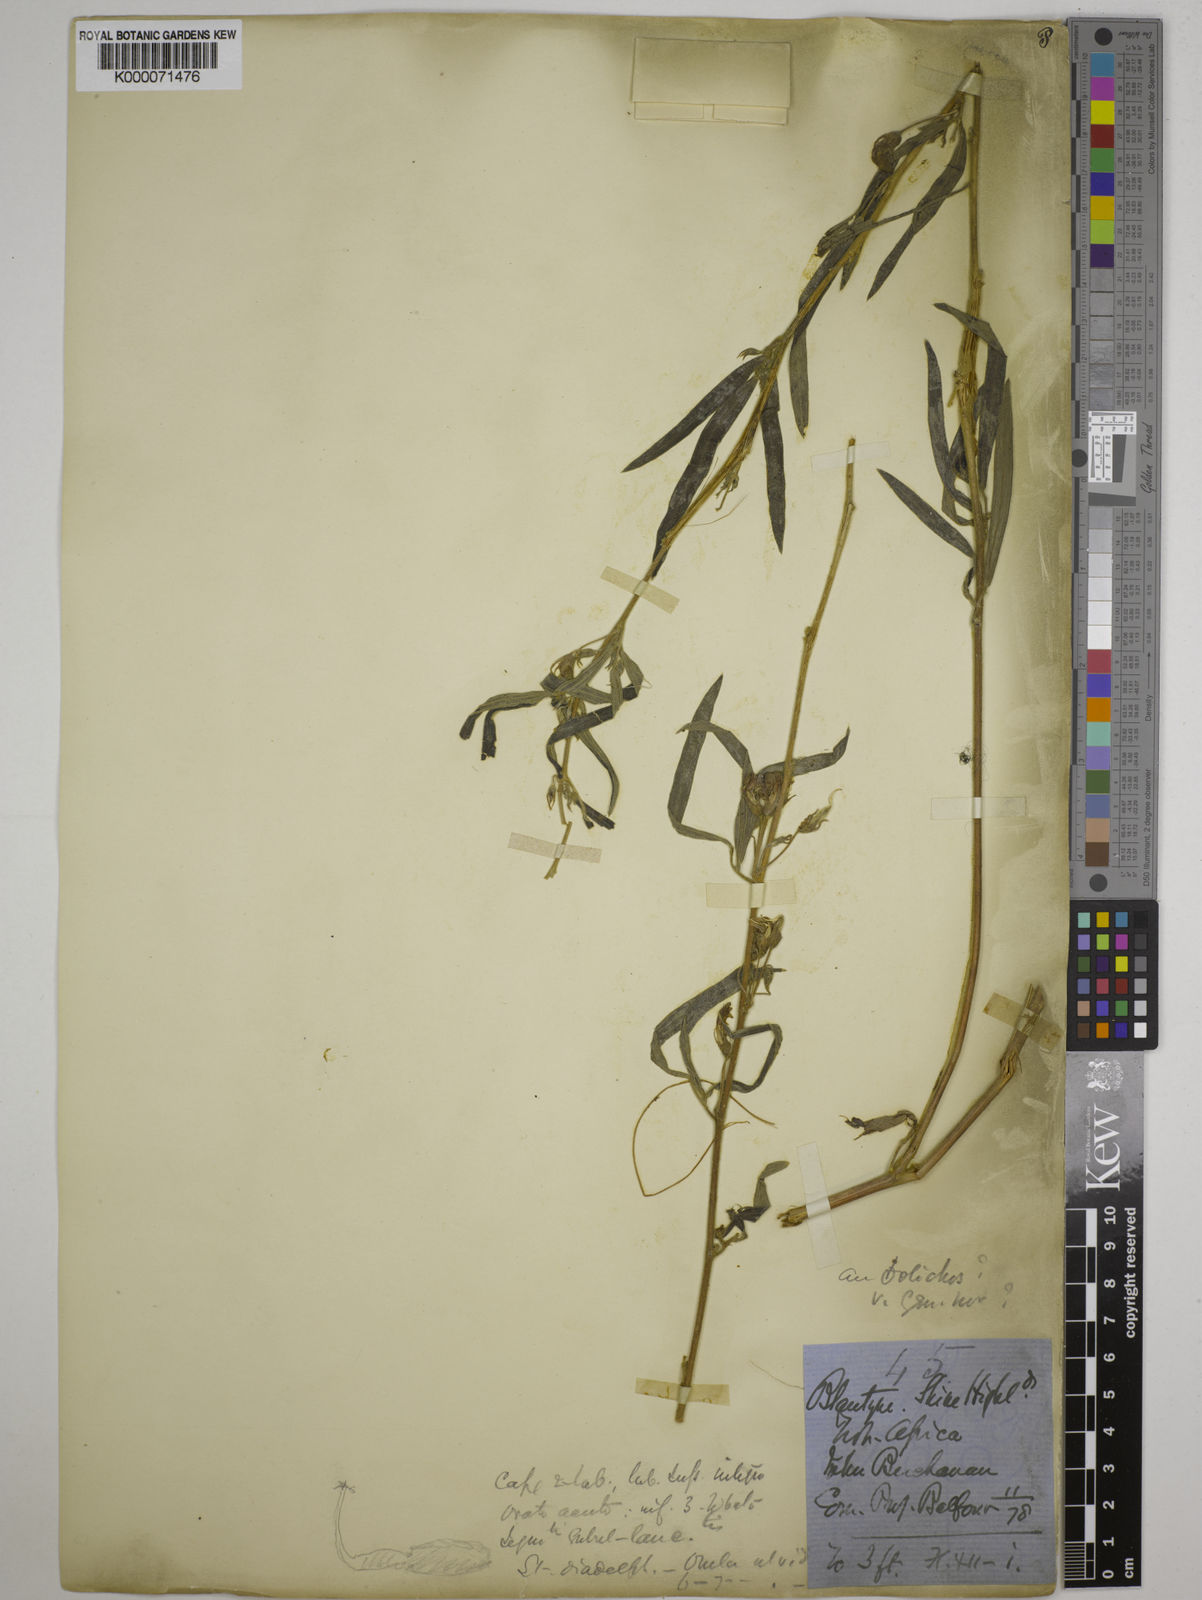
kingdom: Plantae
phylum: Tracheophyta
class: Magnoliopsida
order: Fabales
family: Fabaceae
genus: Dolichos
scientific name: Dolichos trinervatus
